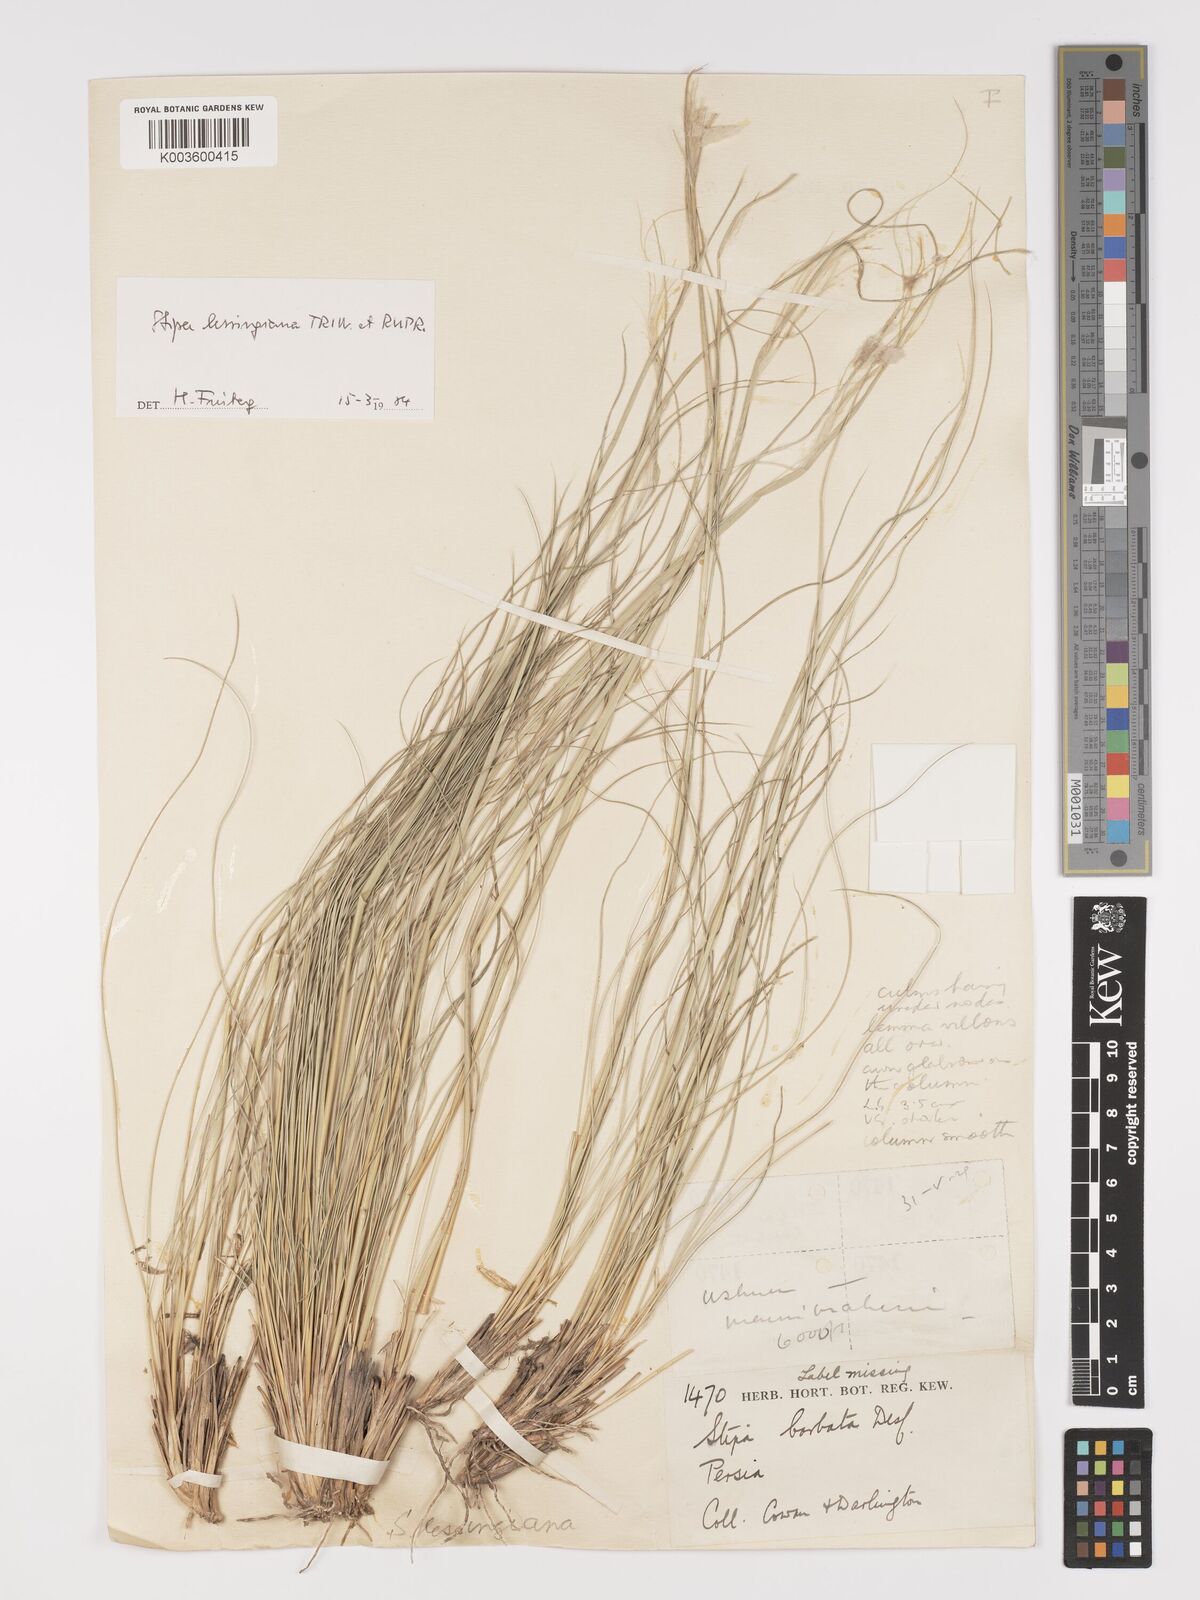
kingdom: Plantae
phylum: Tracheophyta
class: Liliopsida
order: Poales
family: Poaceae
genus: Stipa
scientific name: Stipa lessingiana
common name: Needle grass
